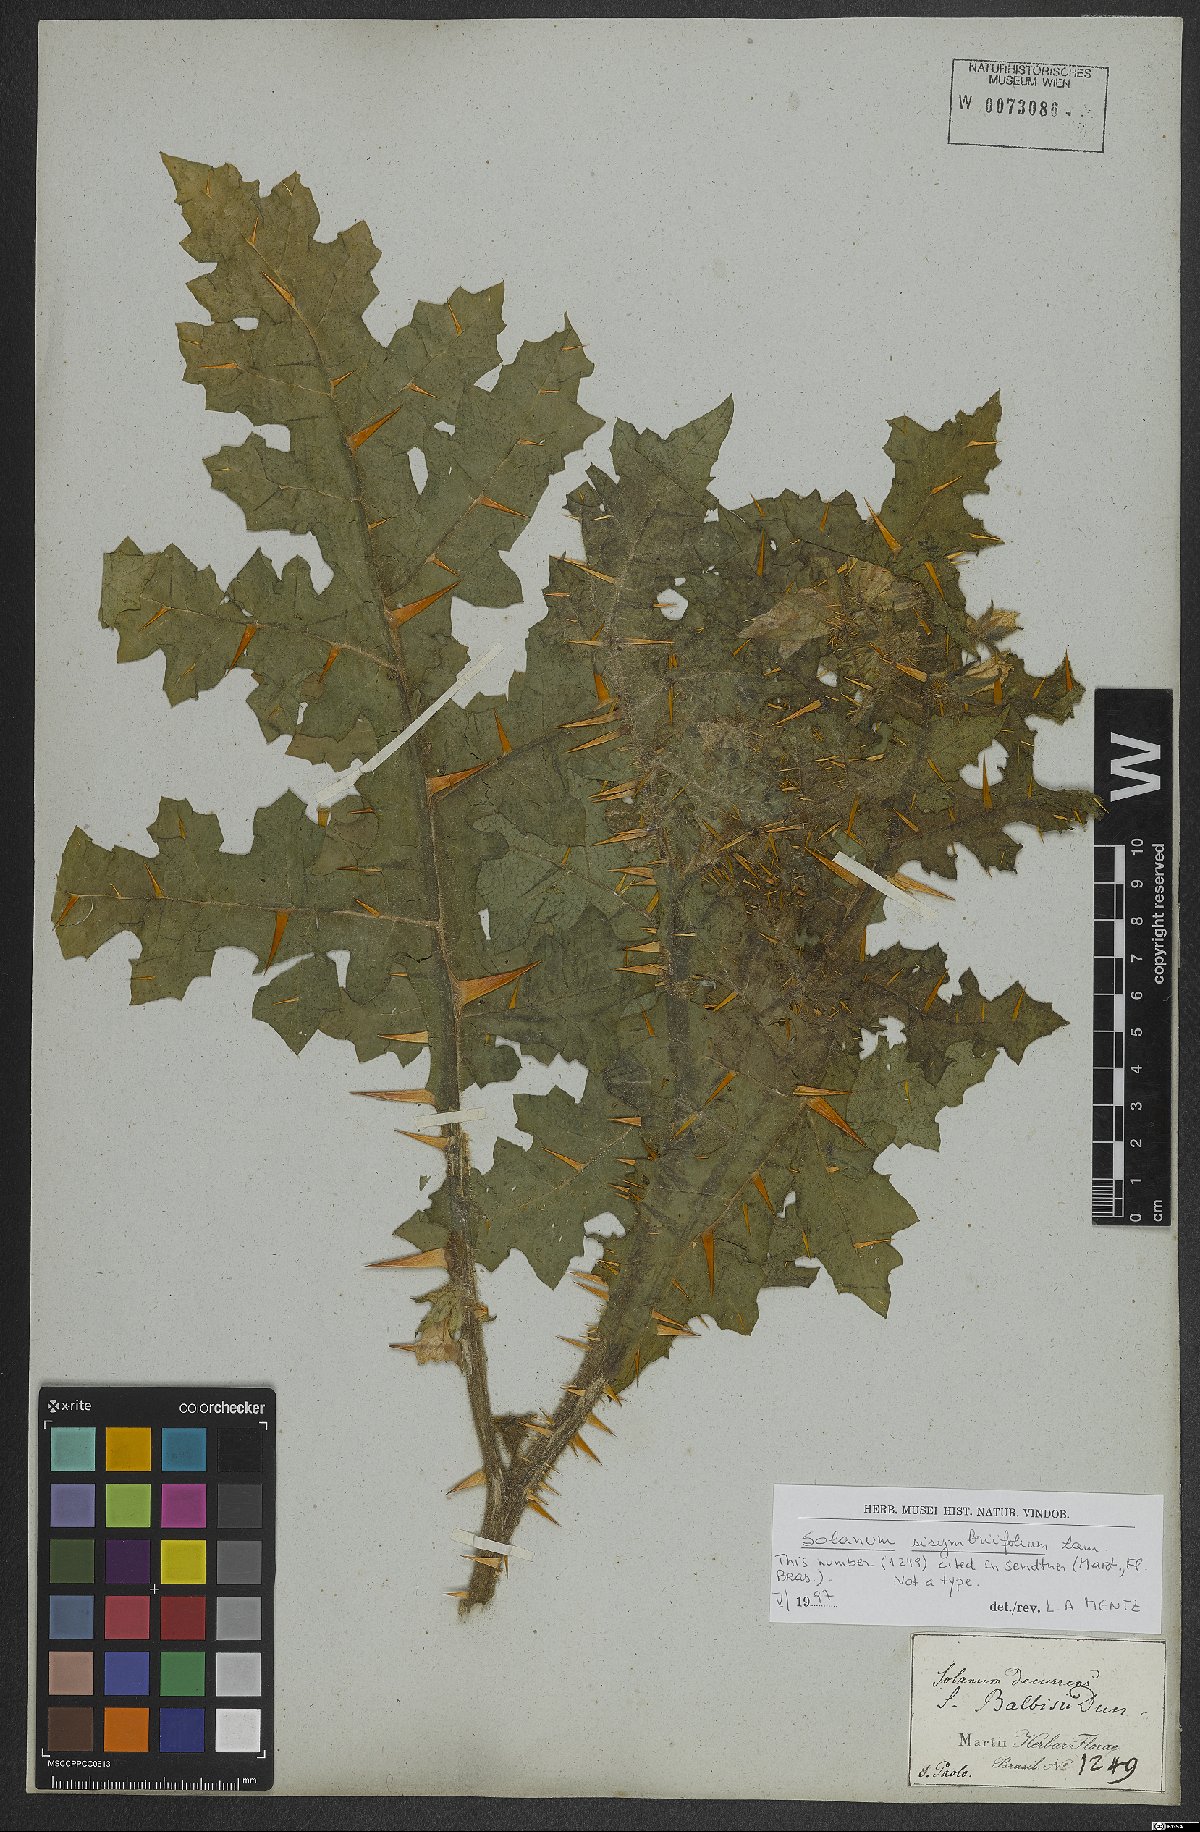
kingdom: Plantae
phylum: Tracheophyta
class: Magnoliopsida
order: Solanales
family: Solanaceae
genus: Solanum
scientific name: Solanum sisymbriifolium
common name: Red buffalo-bur
